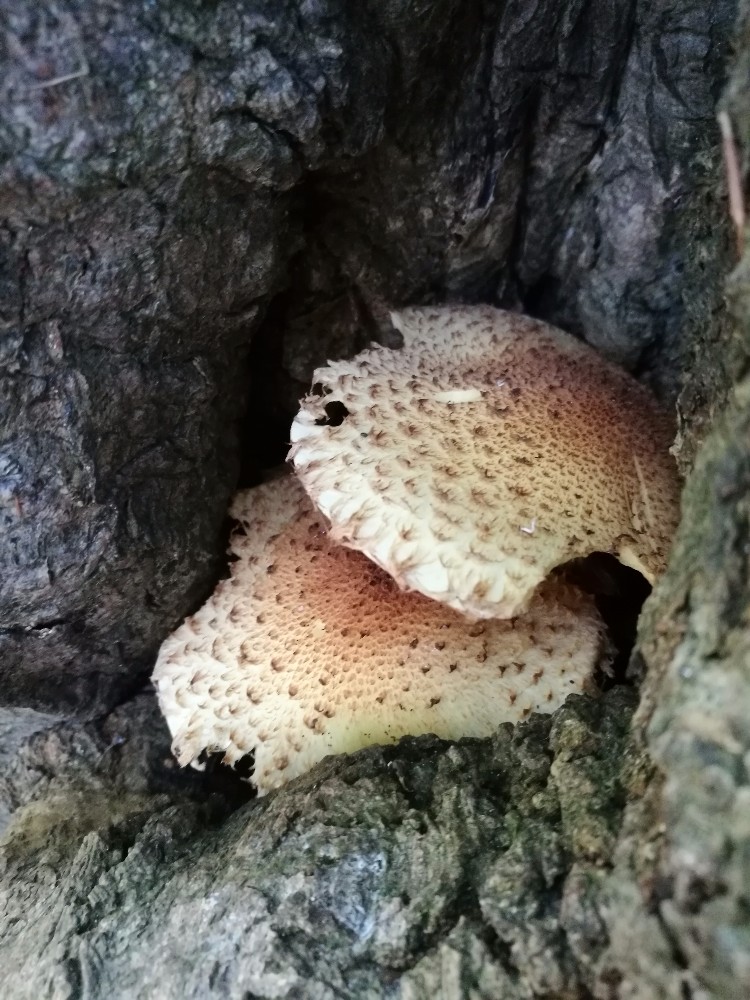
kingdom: Fungi
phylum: Basidiomycota
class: Agaricomycetes
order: Agaricales
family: Strophariaceae
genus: Pholiota
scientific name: Pholiota squarrosa
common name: krumskællet skælhat
